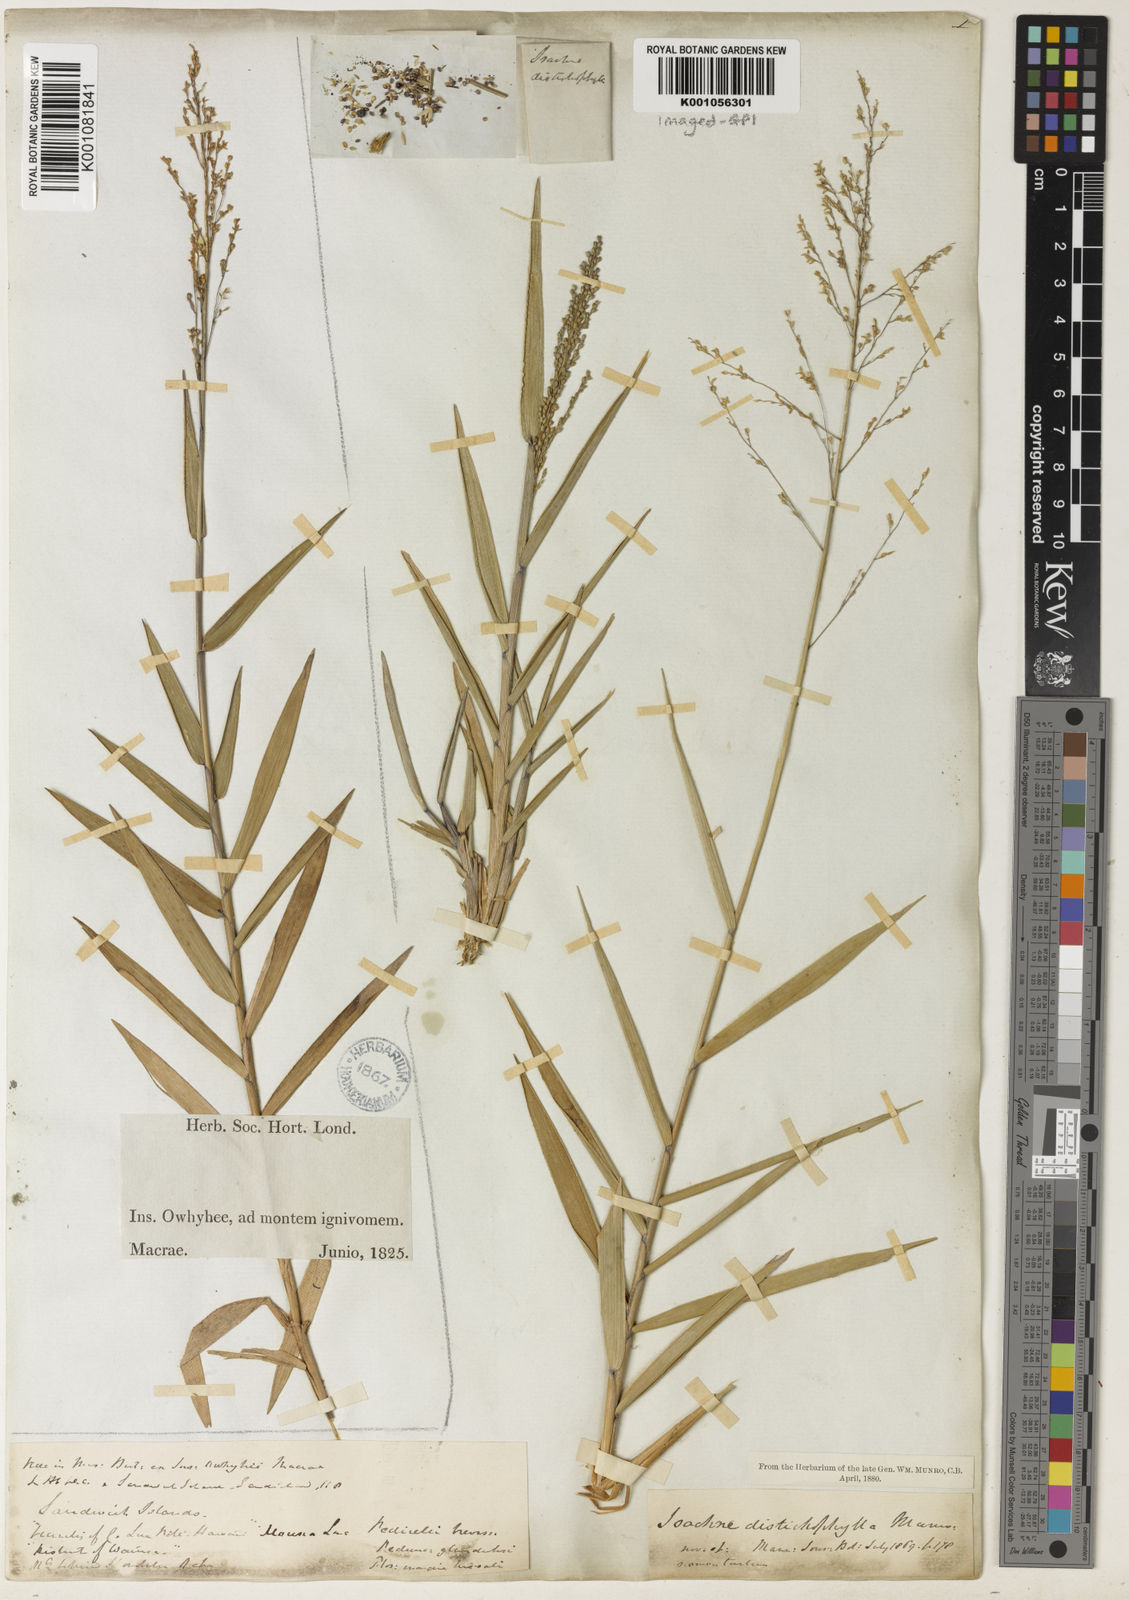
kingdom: Plantae
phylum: Tracheophyta
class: Liliopsida
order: Poales
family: Poaceae
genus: Isachne
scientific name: Isachne distichophylla
